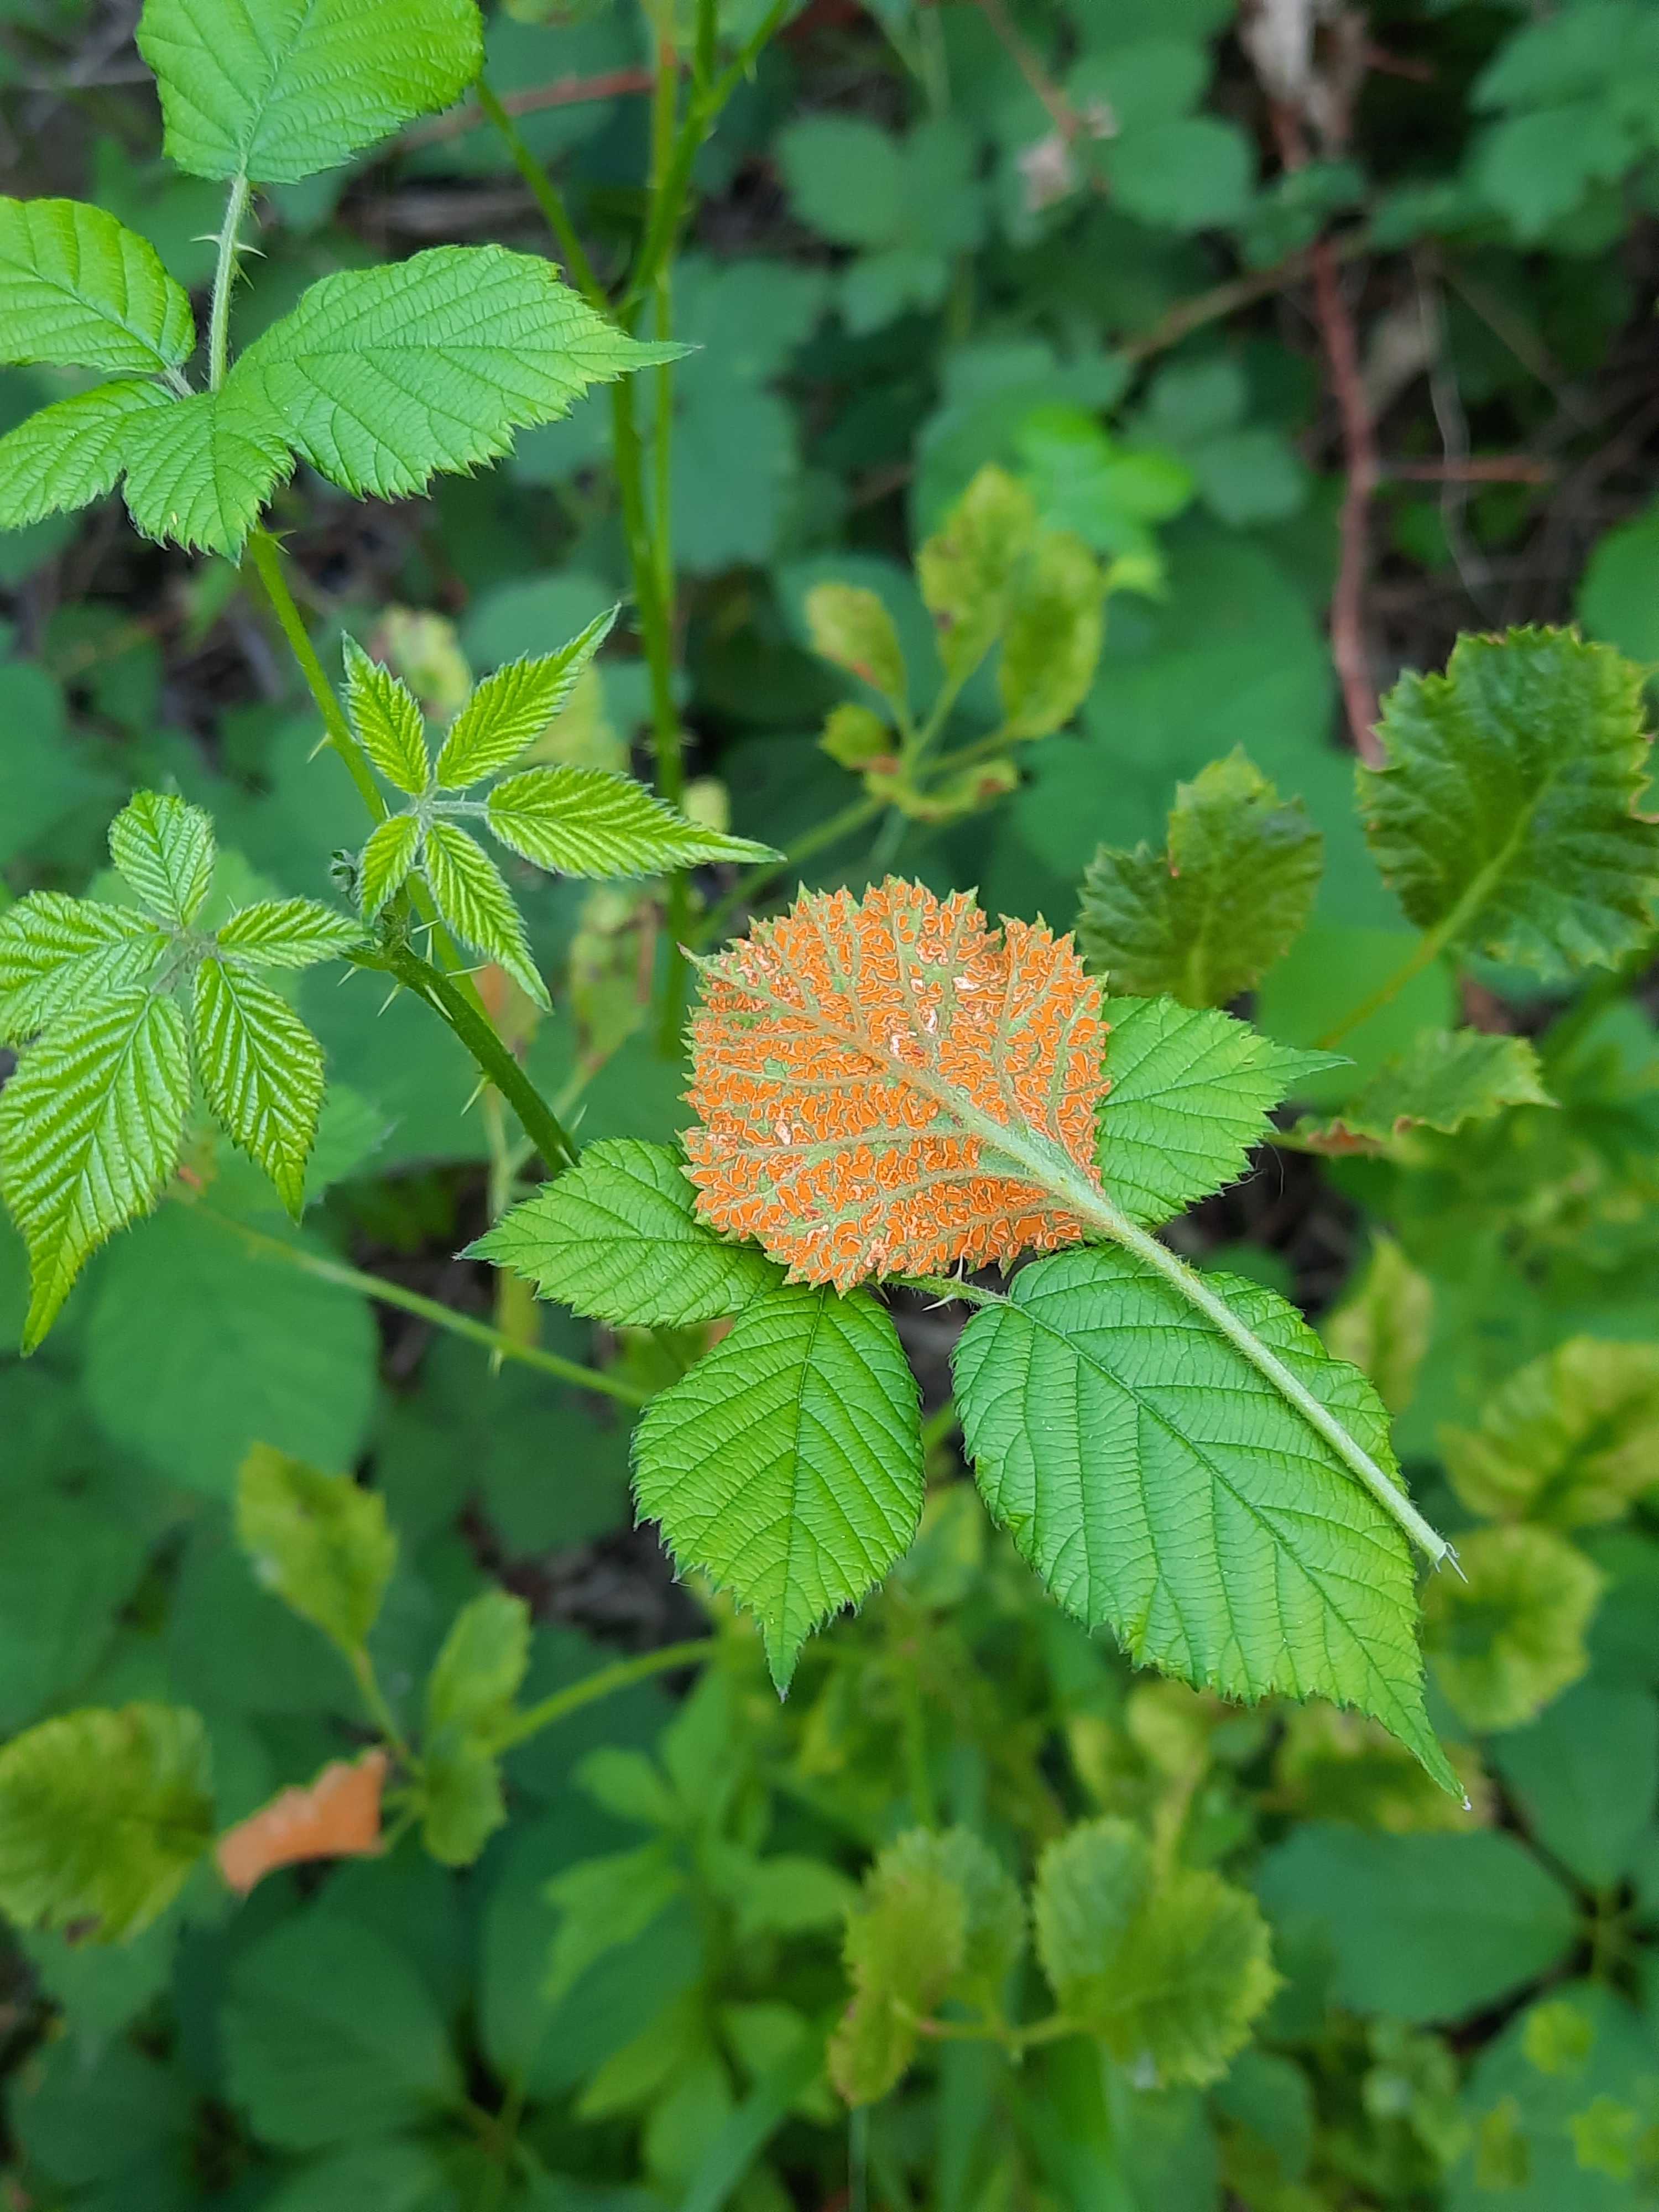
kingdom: Fungi
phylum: Basidiomycota
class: Pucciniomycetes
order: Pucciniales
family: Phragmidiaceae
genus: Arthuriomyces
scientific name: Arthuriomyces peckianus
